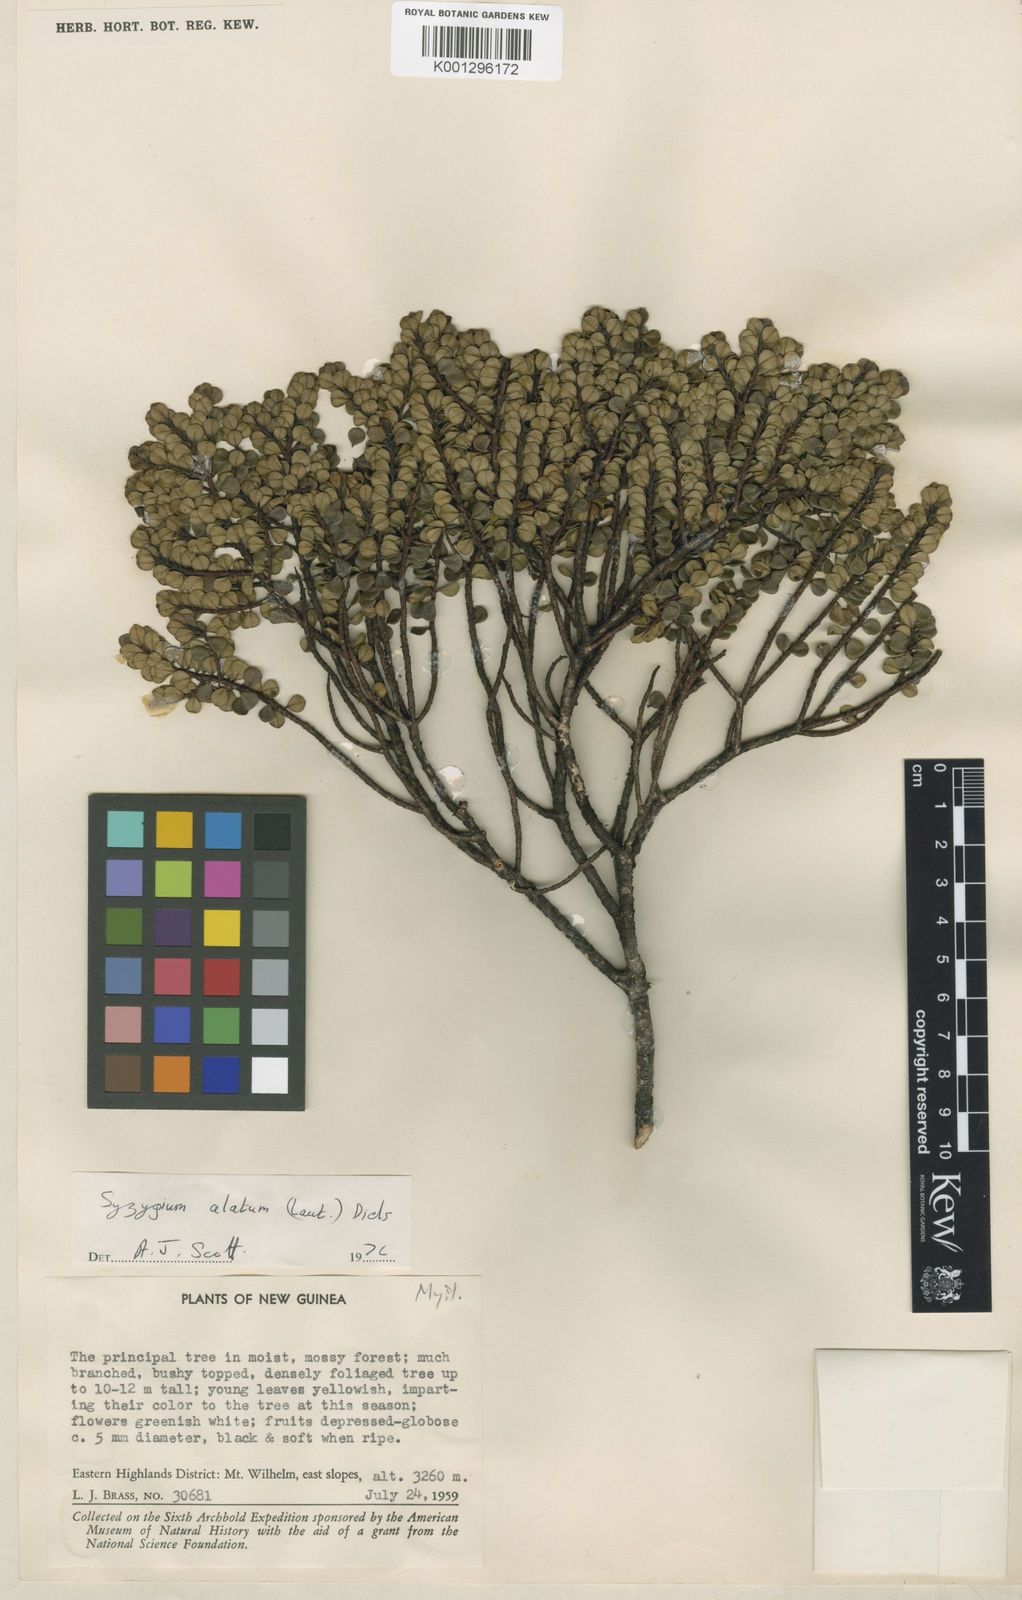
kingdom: Plantae
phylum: Tracheophyta
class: Magnoliopsida
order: Myrtales
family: Myrtaceae
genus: Syzygium
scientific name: Syzygium alatum
